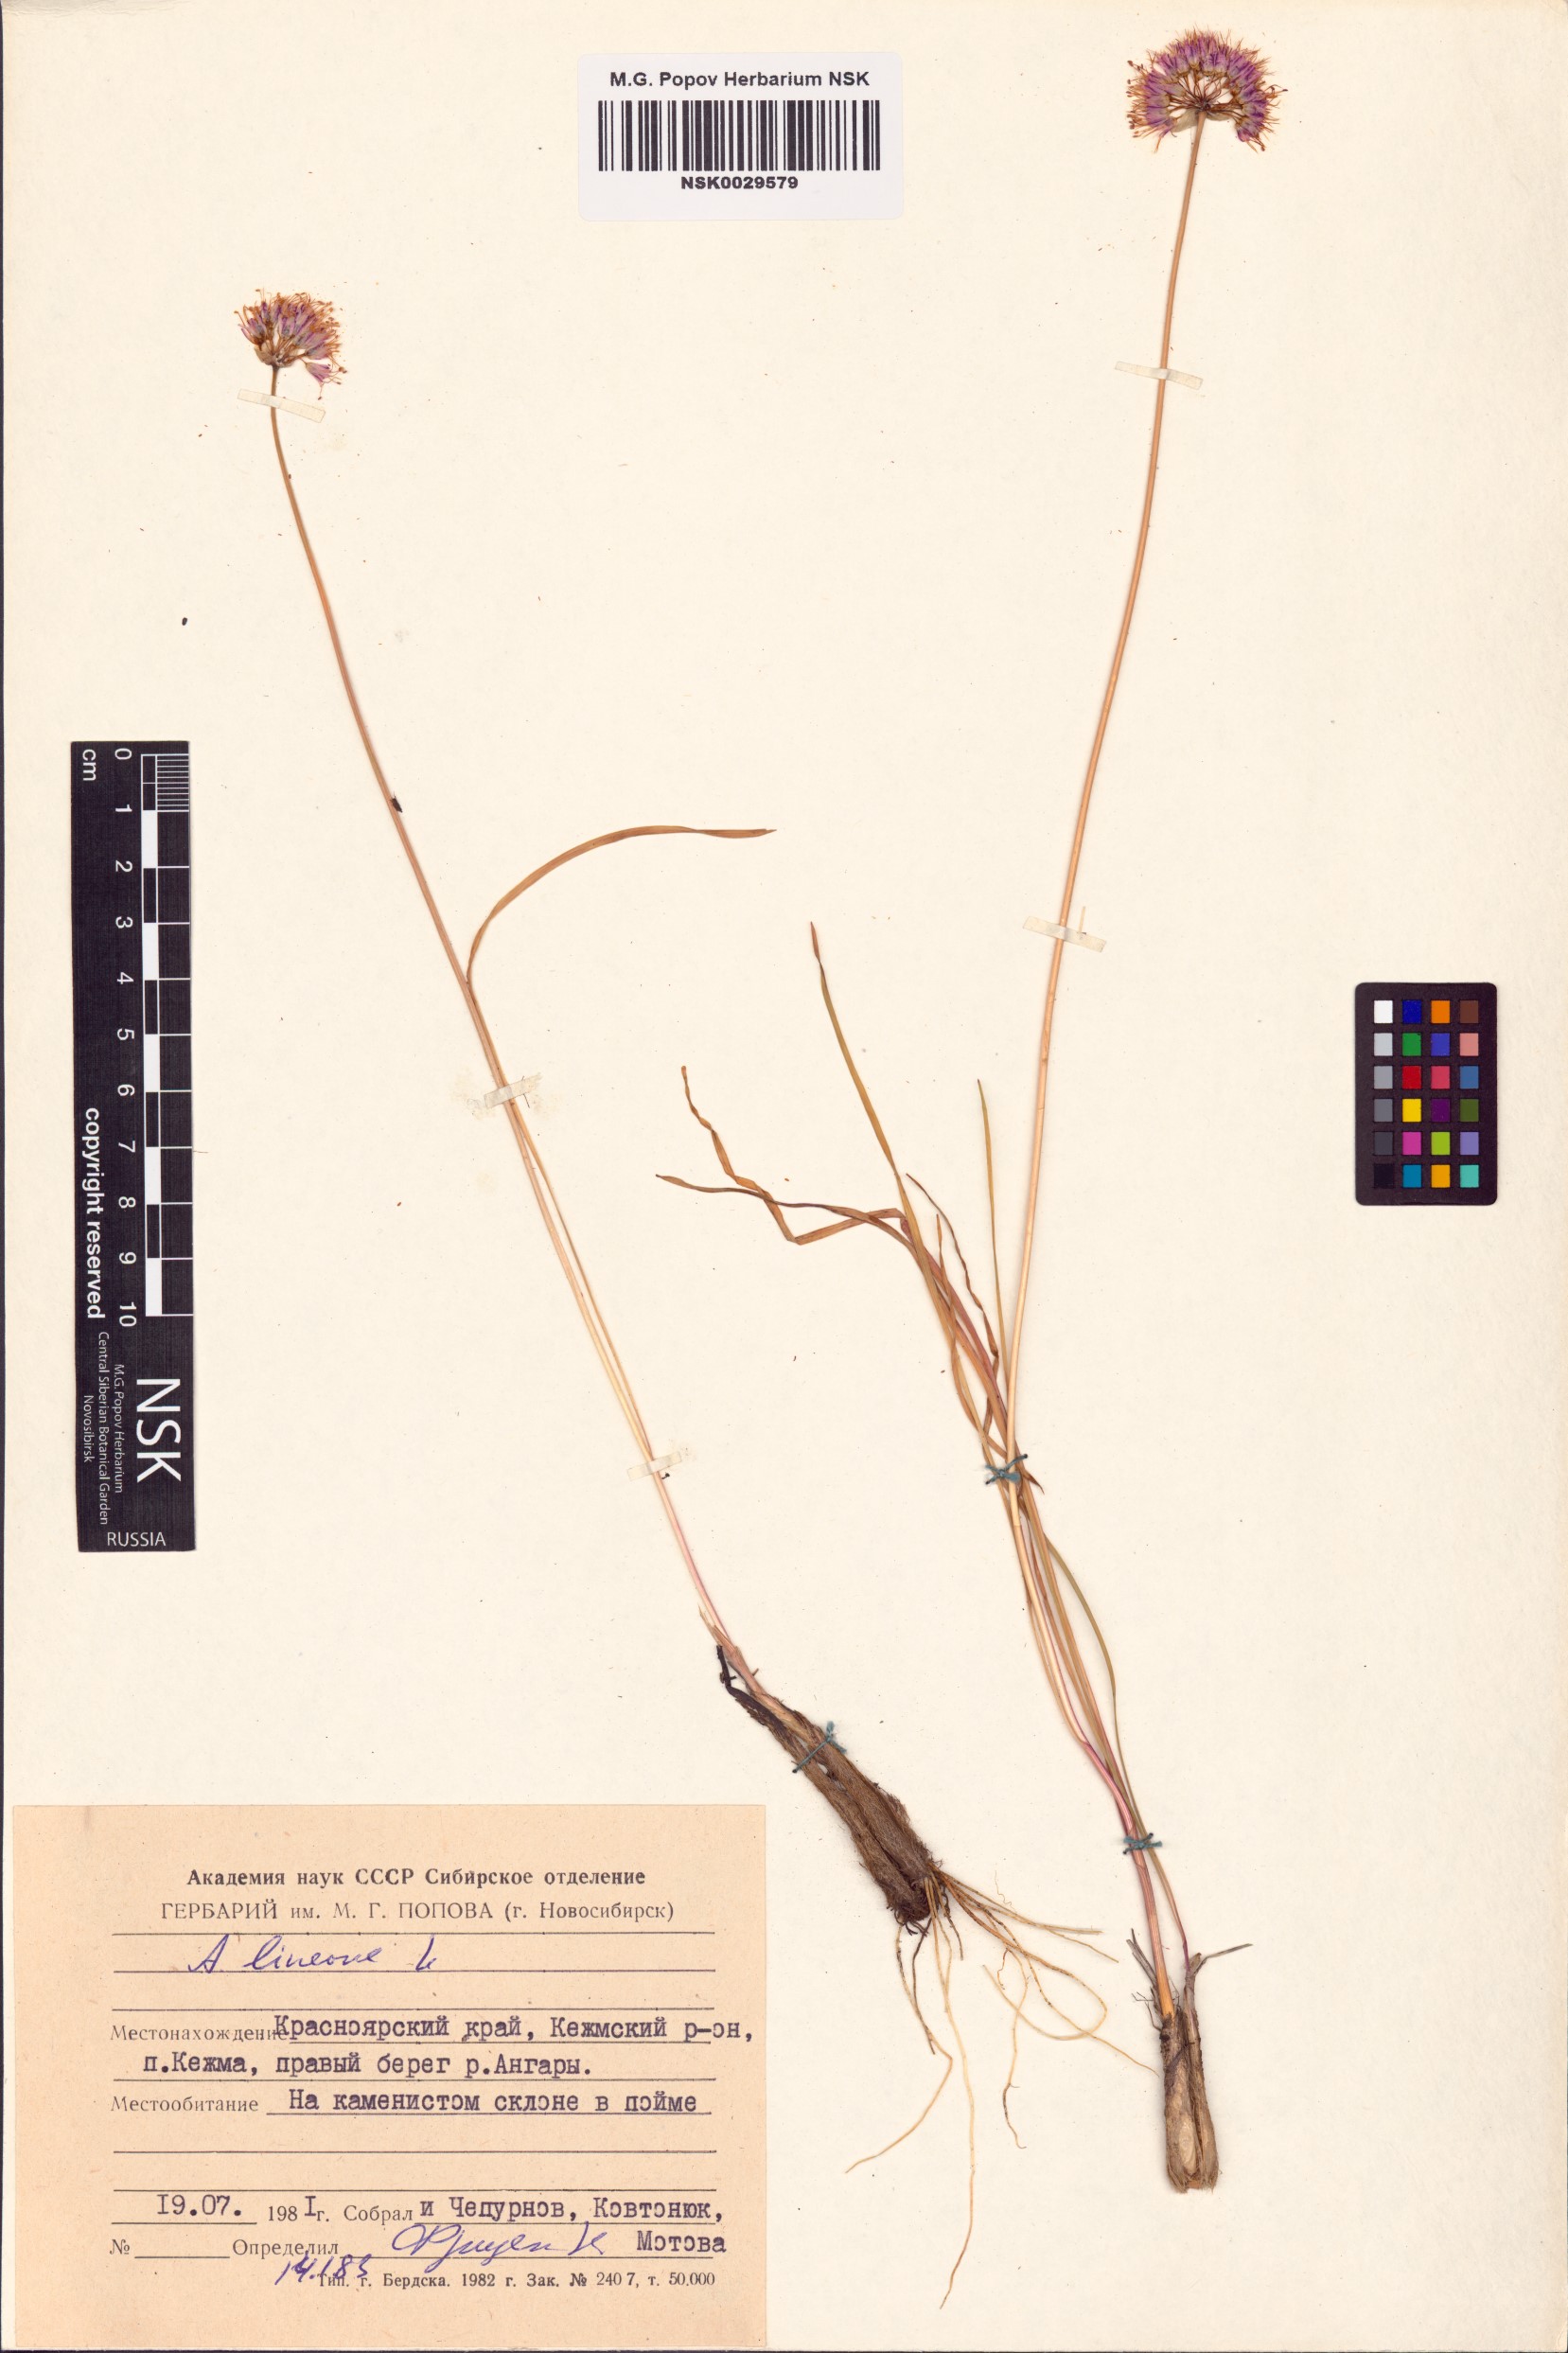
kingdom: Plantae
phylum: Tracheophyta
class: Liliopsida
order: Asparagales
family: Amaryllidaceae
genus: Allium
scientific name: Allium lineare
